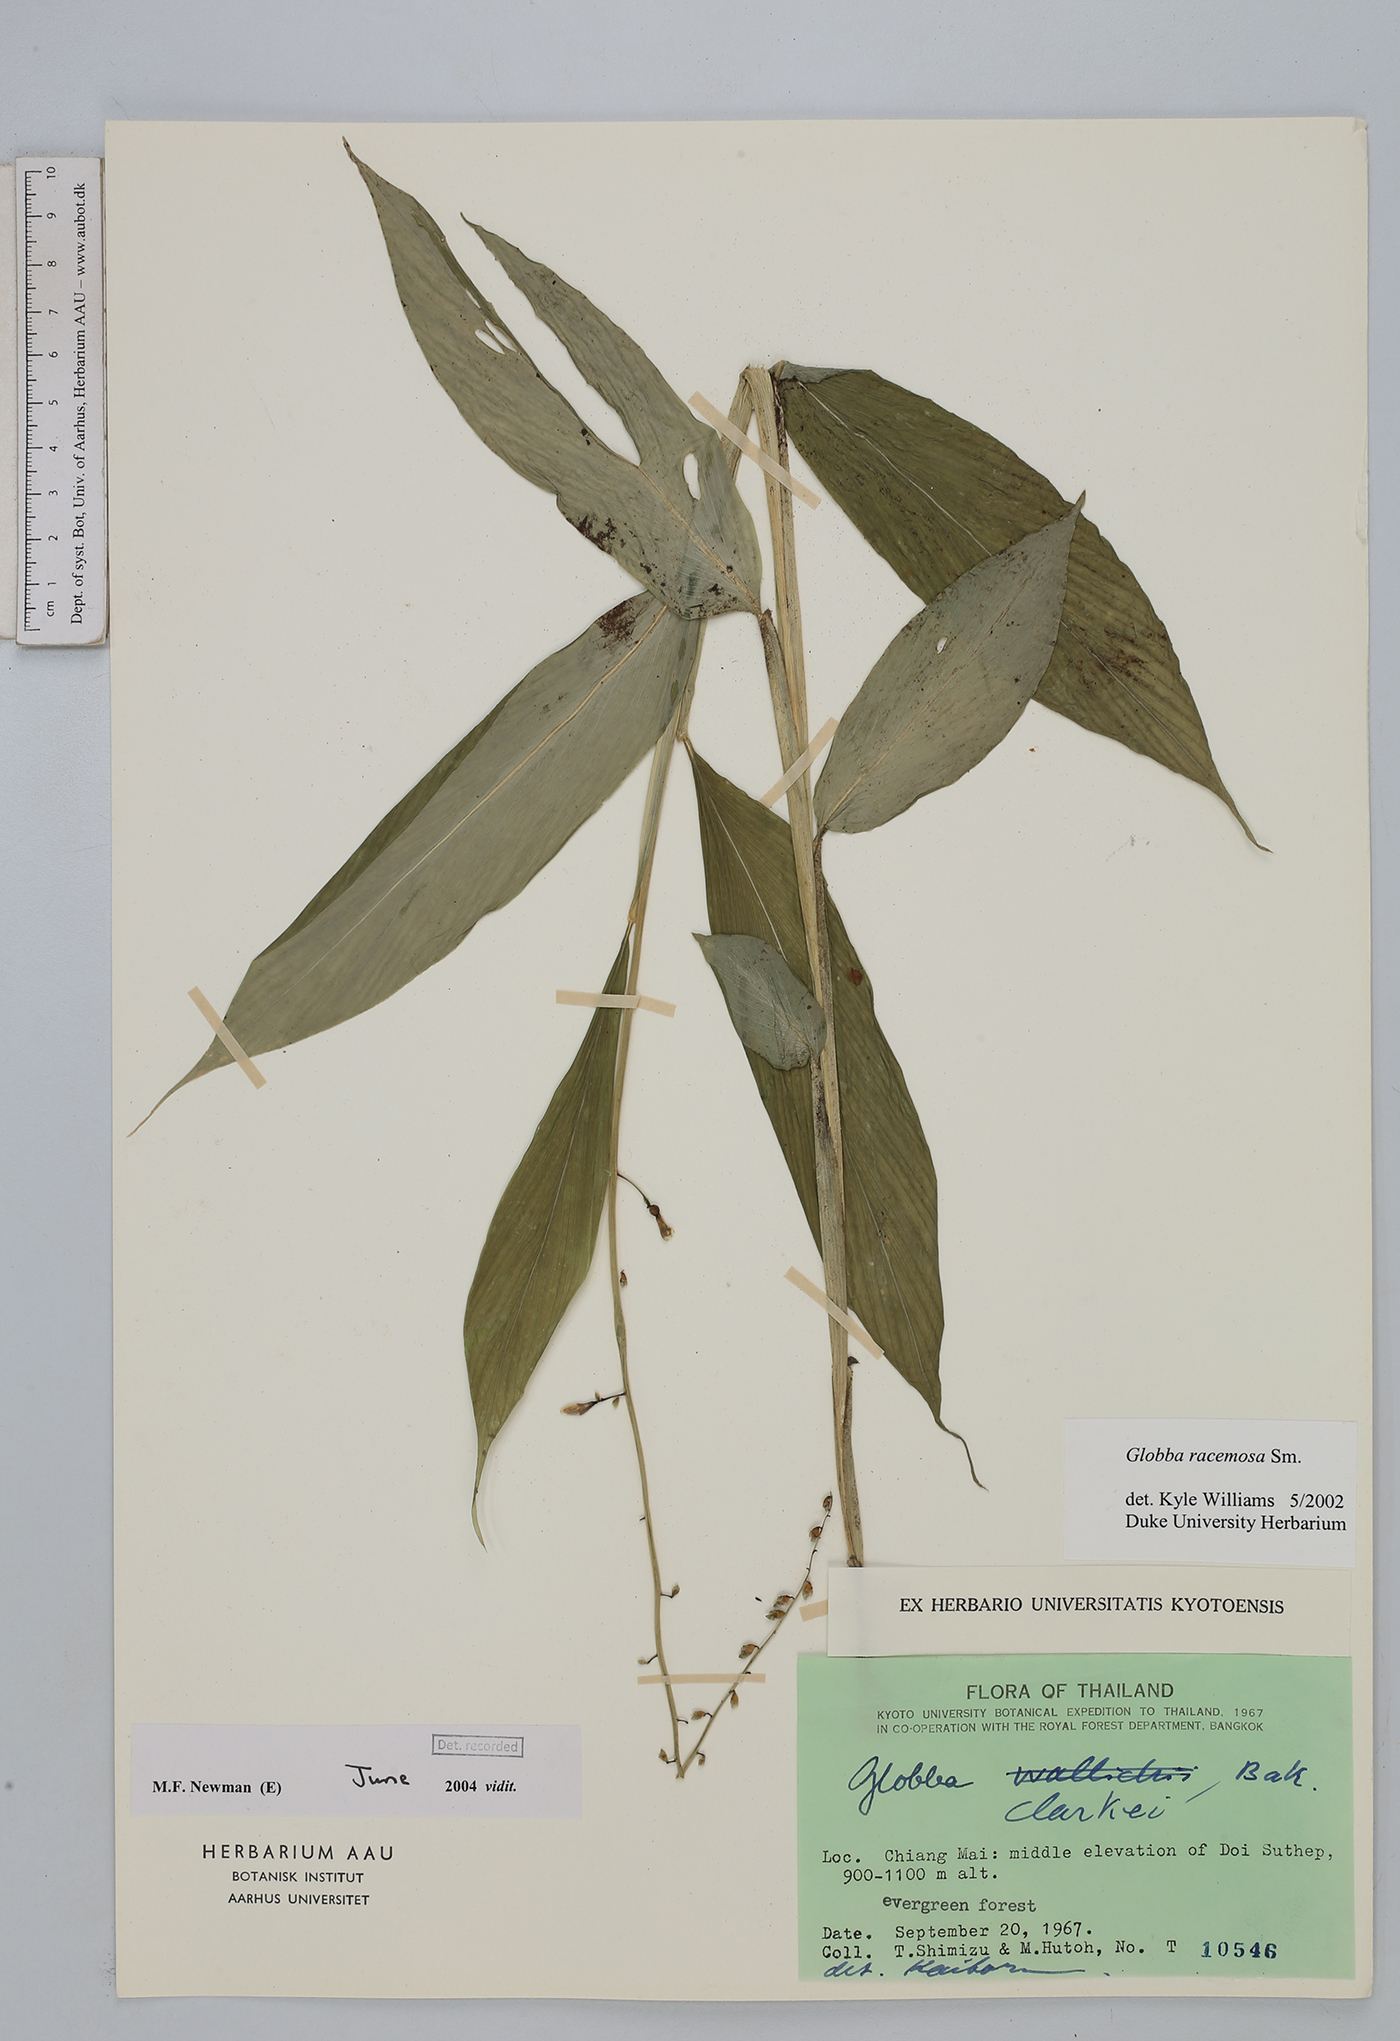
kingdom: Plantae
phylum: Tracheophyta
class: Liliopsida
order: Zingiberales
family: Zingiberaceae
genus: Globba
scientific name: Globba racemosa
